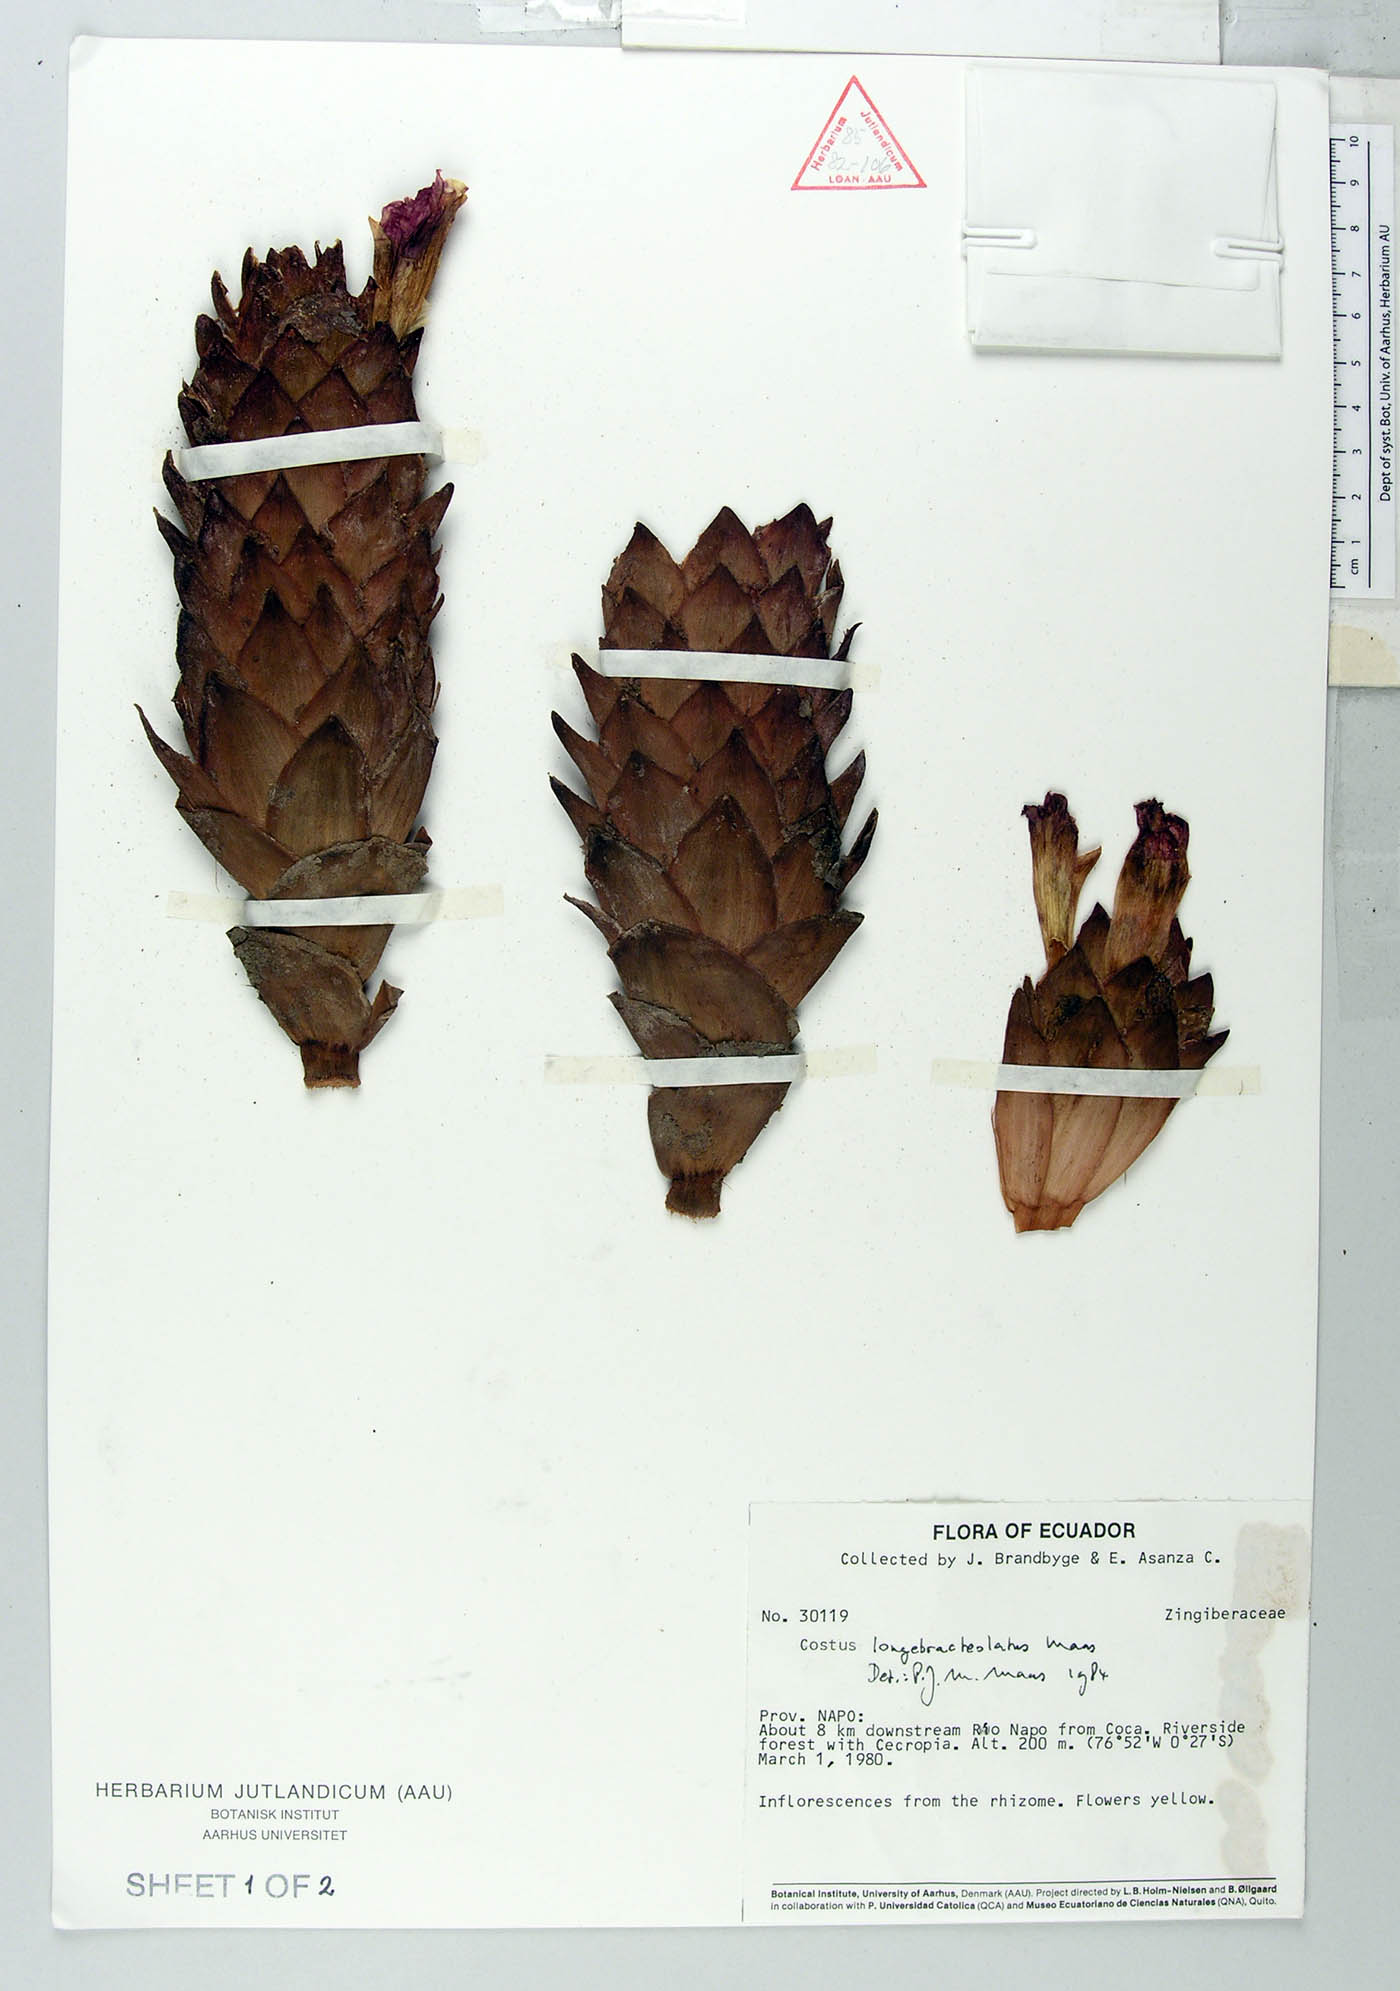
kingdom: Plantae
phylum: Tracheophyta
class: Liliopsida
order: Zingiberales
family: Costaceae
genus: Costus
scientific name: Costus longebracteolatus
